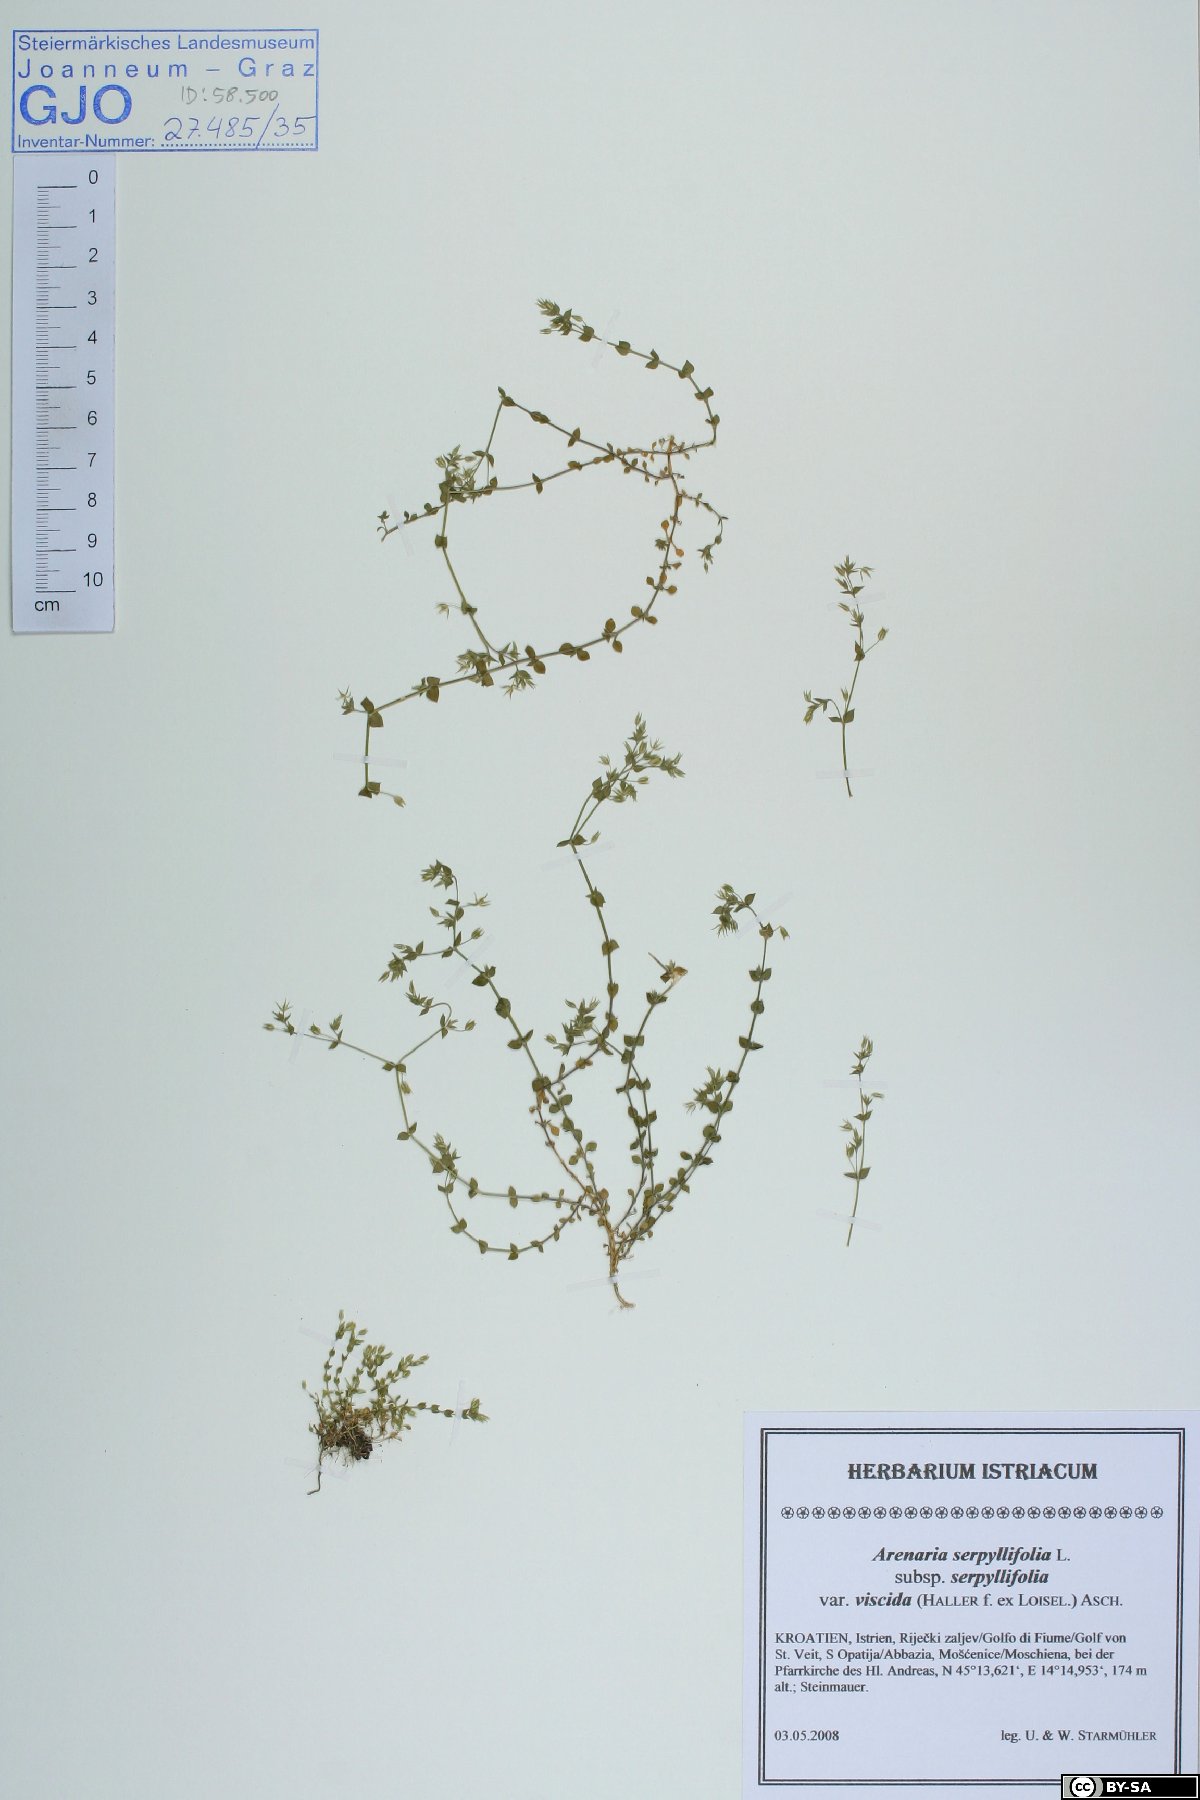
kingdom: Plantae
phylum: Tracheophyta
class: Magnoliopsida
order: Caryophyllales
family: Caryophyllaceae
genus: Arenaria
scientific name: Arenaria serpyllifolia
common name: Thyme-leaved sandwort
